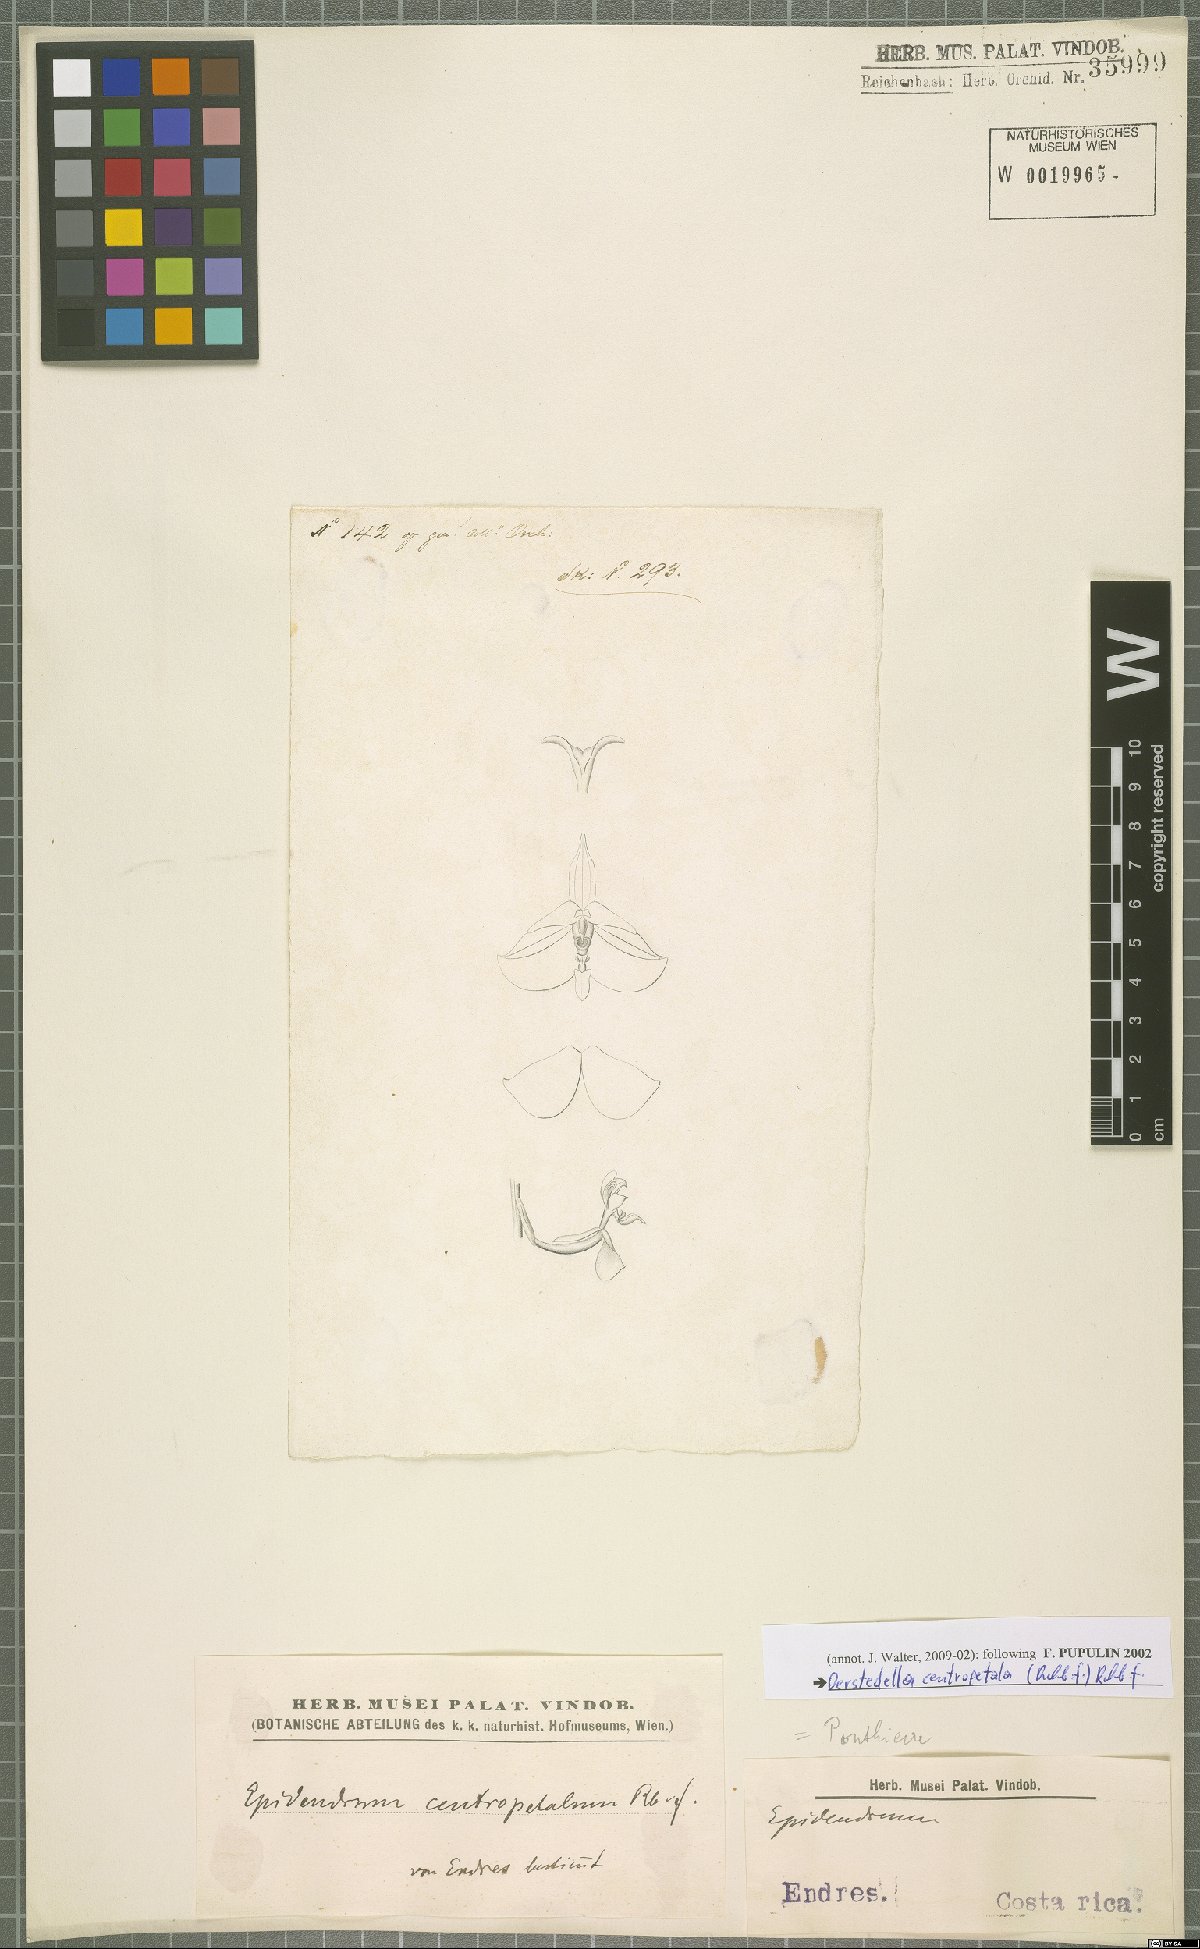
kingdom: Plantae
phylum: Tracheophyta
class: Liliopsida
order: Asparagales
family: Orchidaceae
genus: Epidendrum
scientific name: Epidendrum centropetalum
